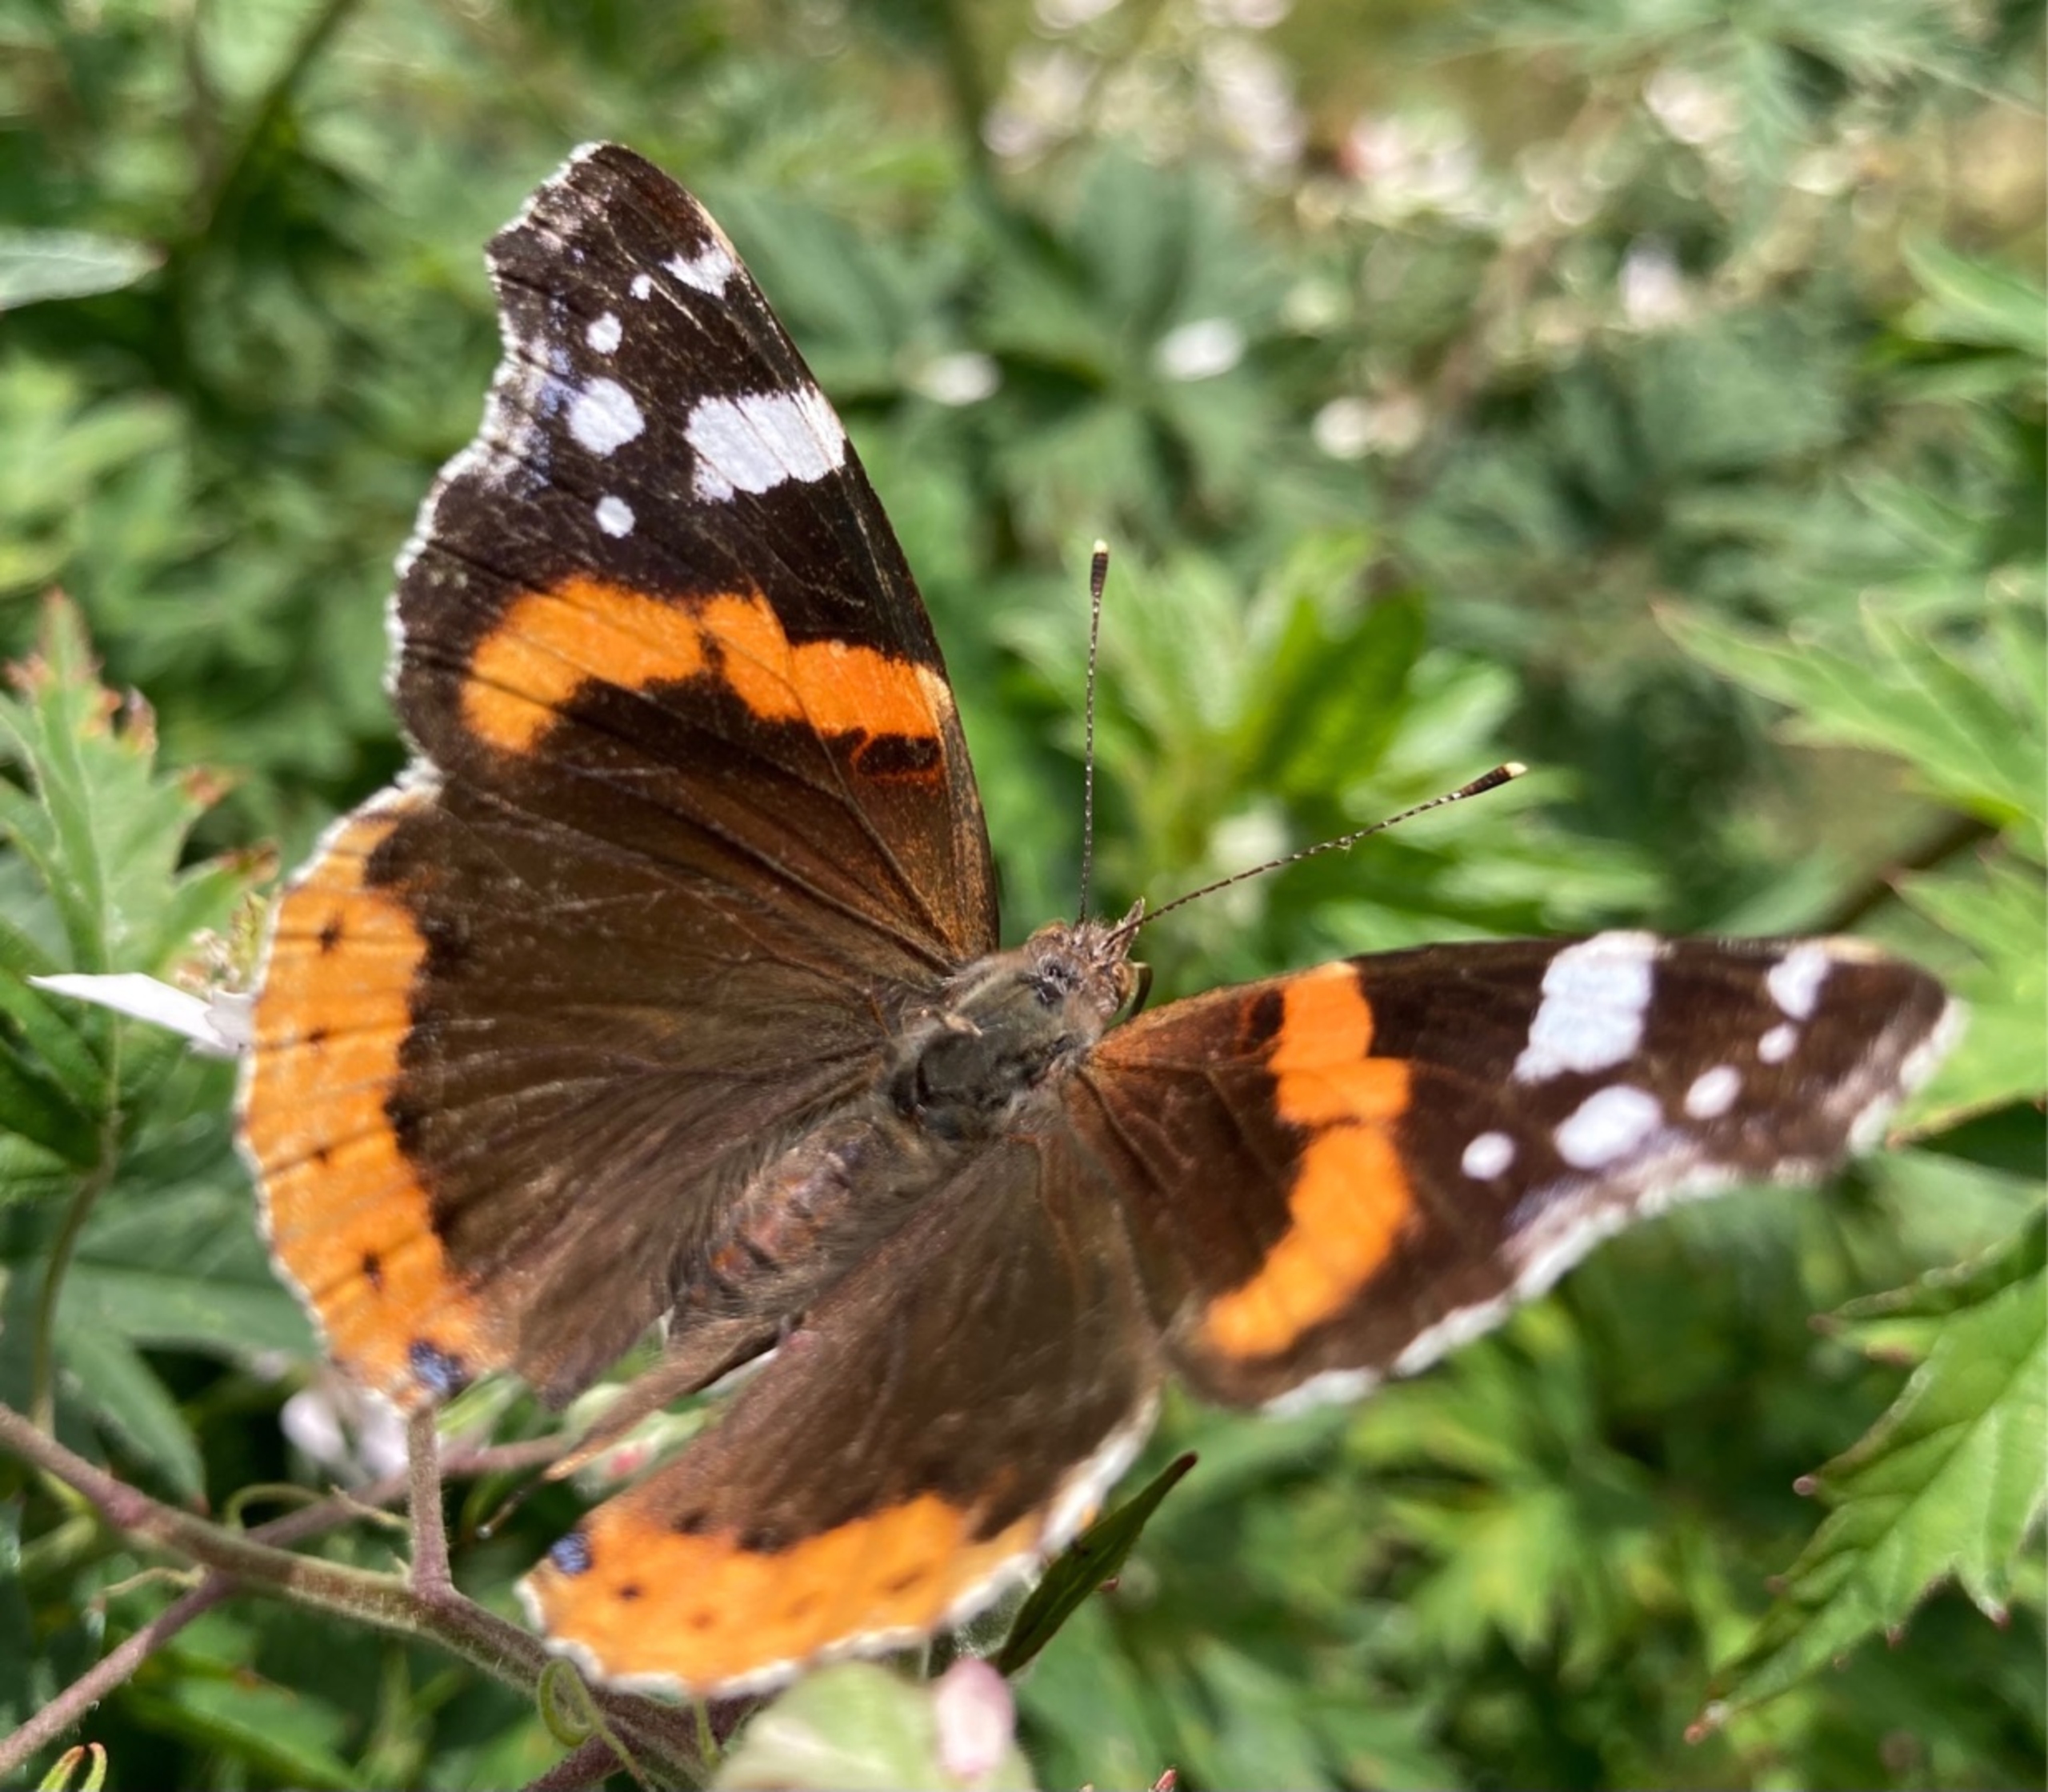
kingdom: Animalia
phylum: Arthropoda
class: Insecta
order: Lepidoptera
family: Nymphalidae
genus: Vanessa
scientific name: Vanessa atalanta
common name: Admiral
